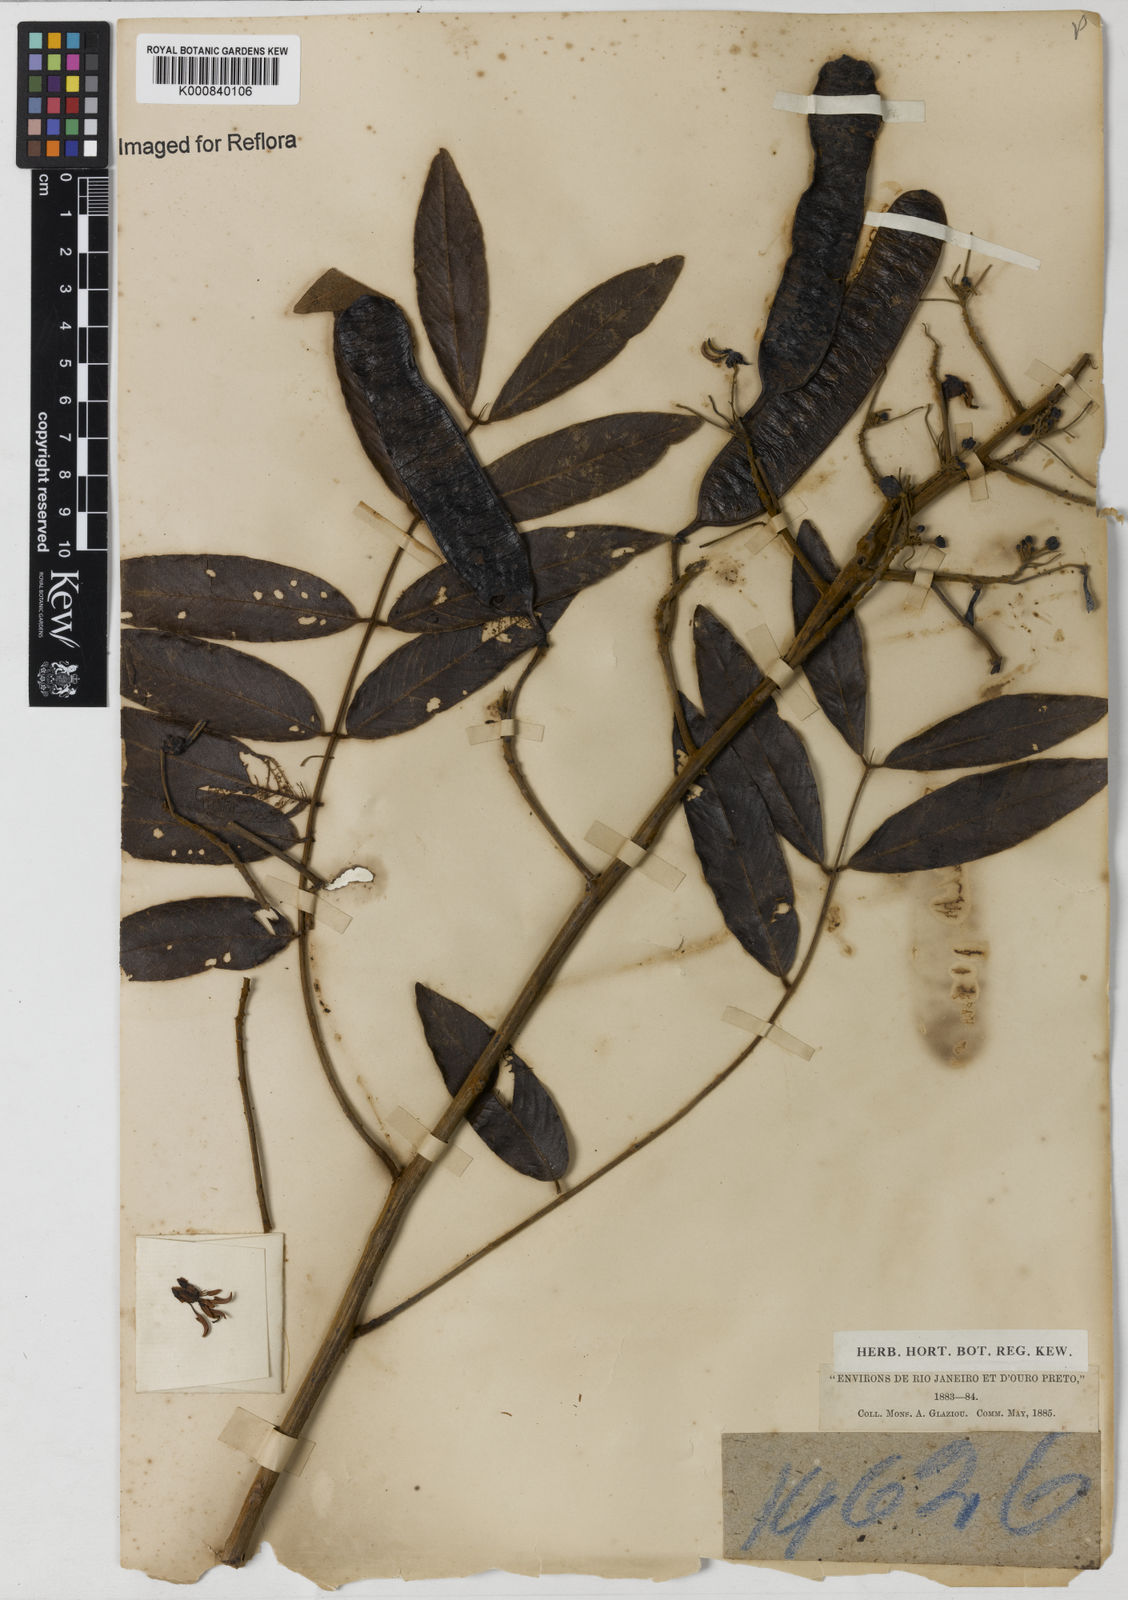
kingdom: Plantae
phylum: Tracheophyta
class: Magnoliopsida
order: Fabales
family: Fabaceae
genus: Senna
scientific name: Senna silvestris
